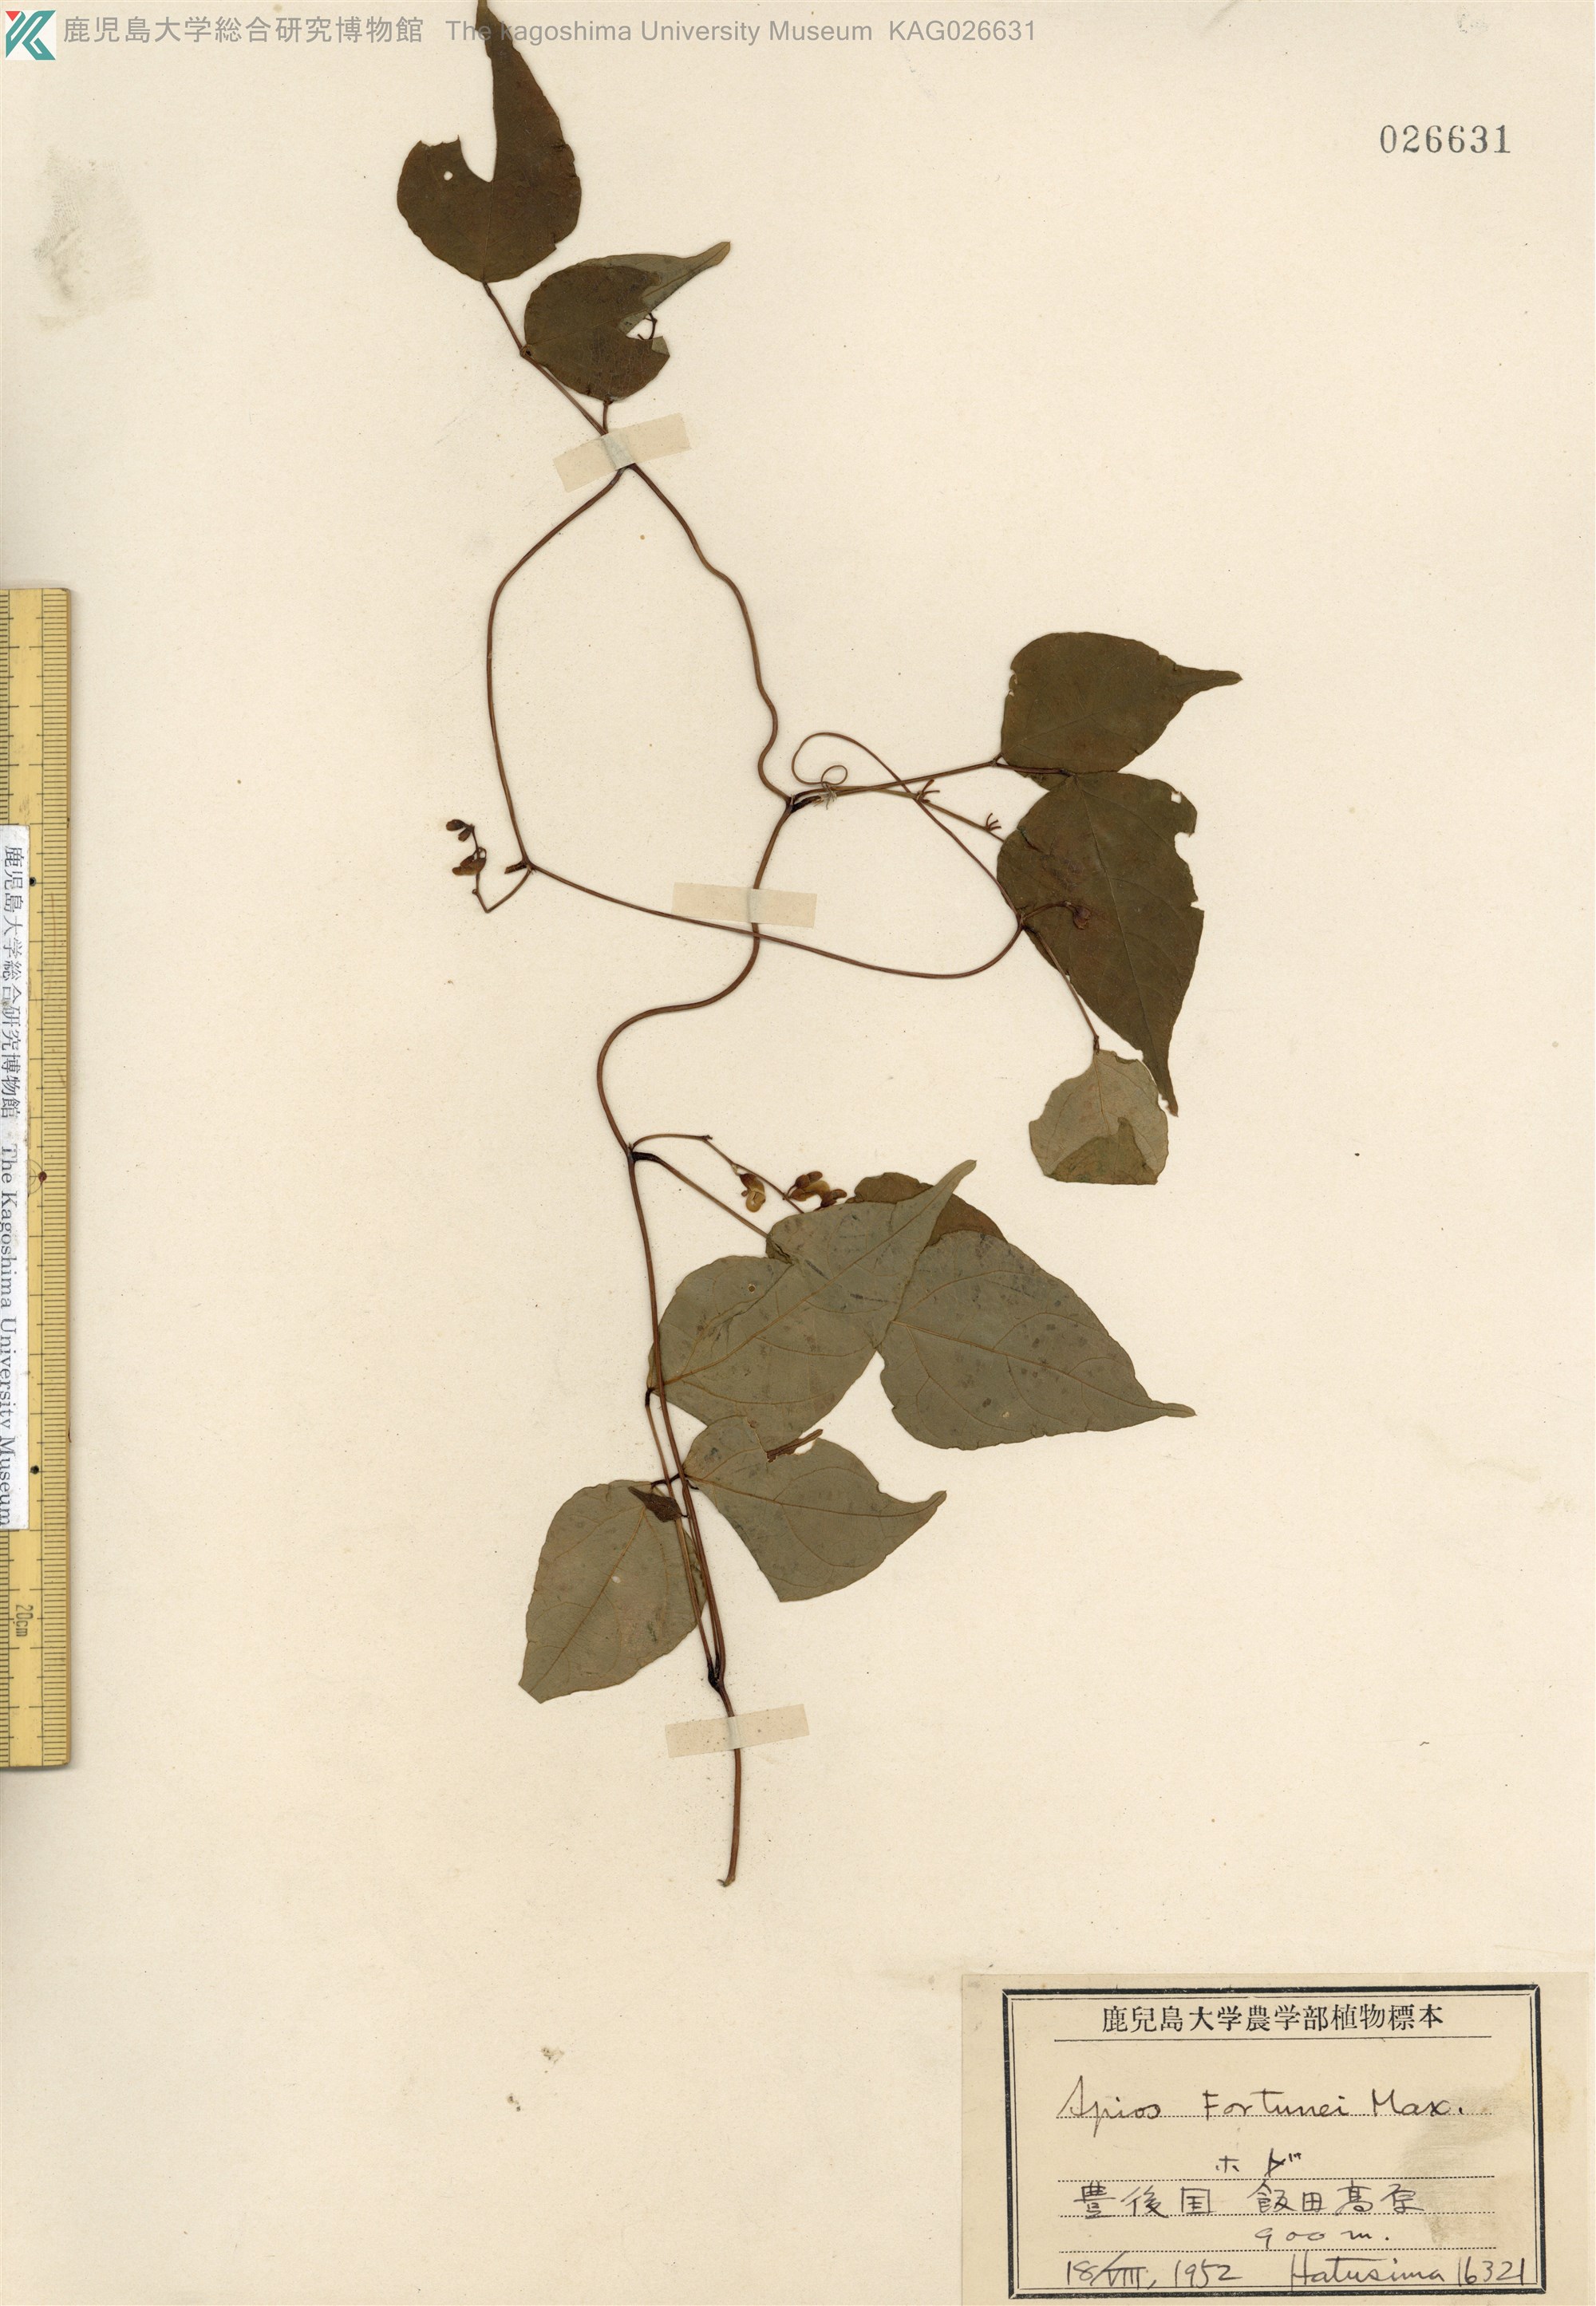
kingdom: Plantae
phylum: Tracheophyta
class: Magnoliopsida
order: Fabales
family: Fabaceae
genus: Apios
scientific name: Apios fortunei
